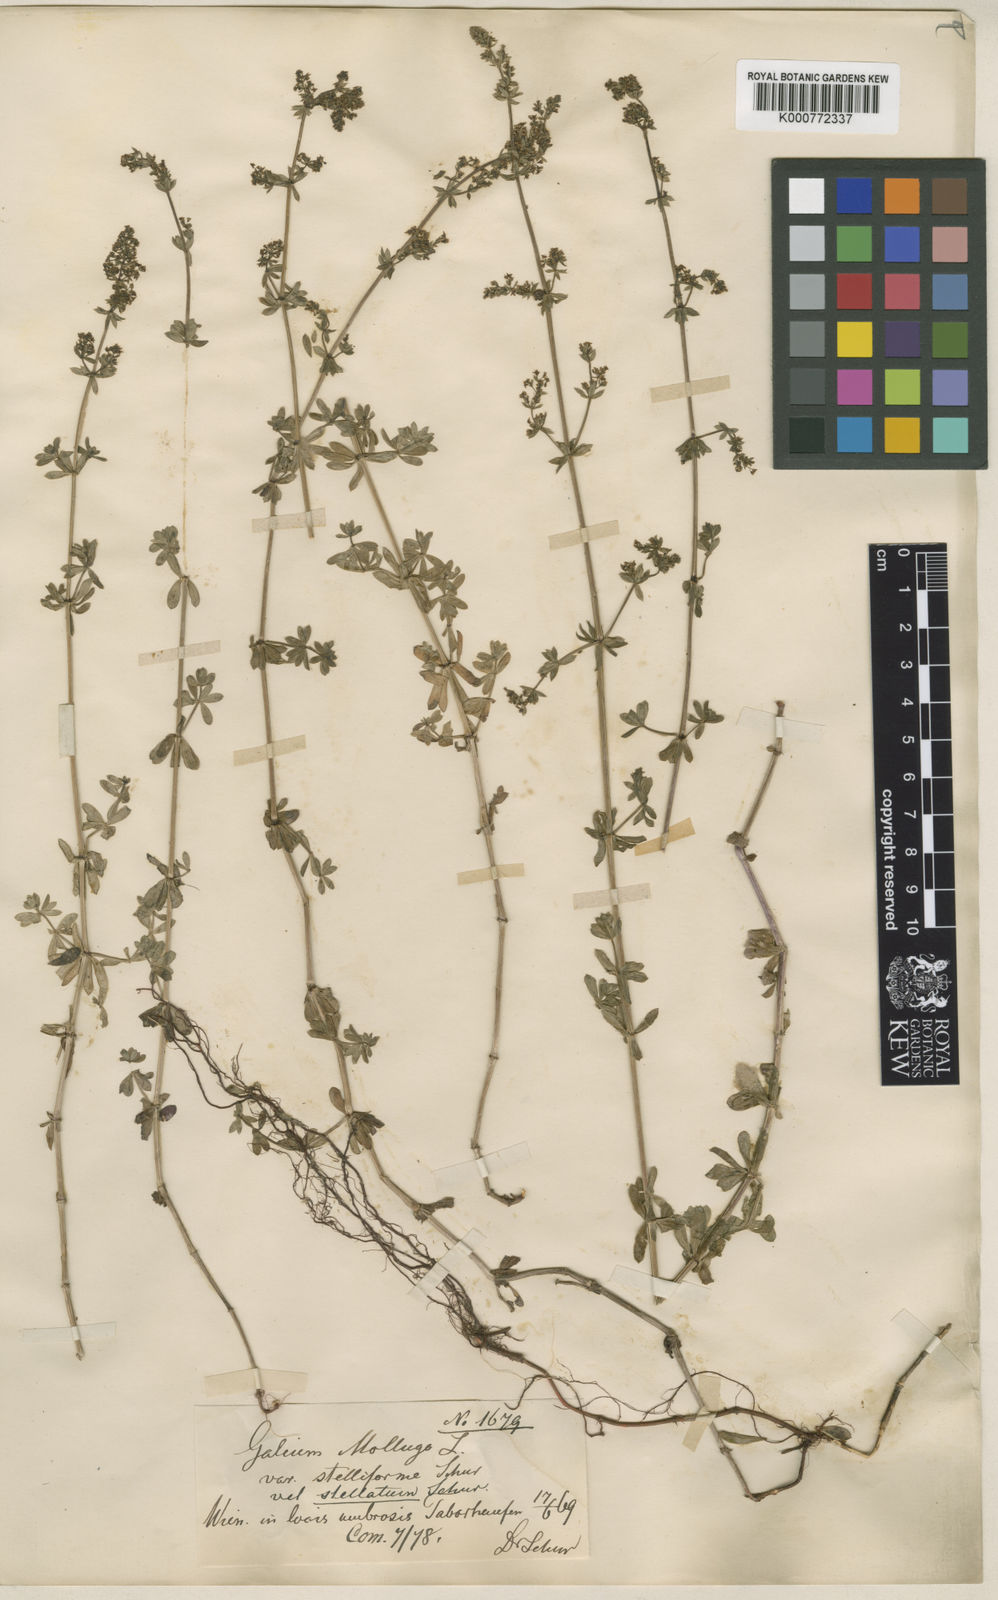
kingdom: Plantae
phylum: Tracheophyta
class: Magnoliopsida
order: Gentianales
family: Rubiaceae
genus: Galium
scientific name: Galium mollugo
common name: Hedge bedstraw
